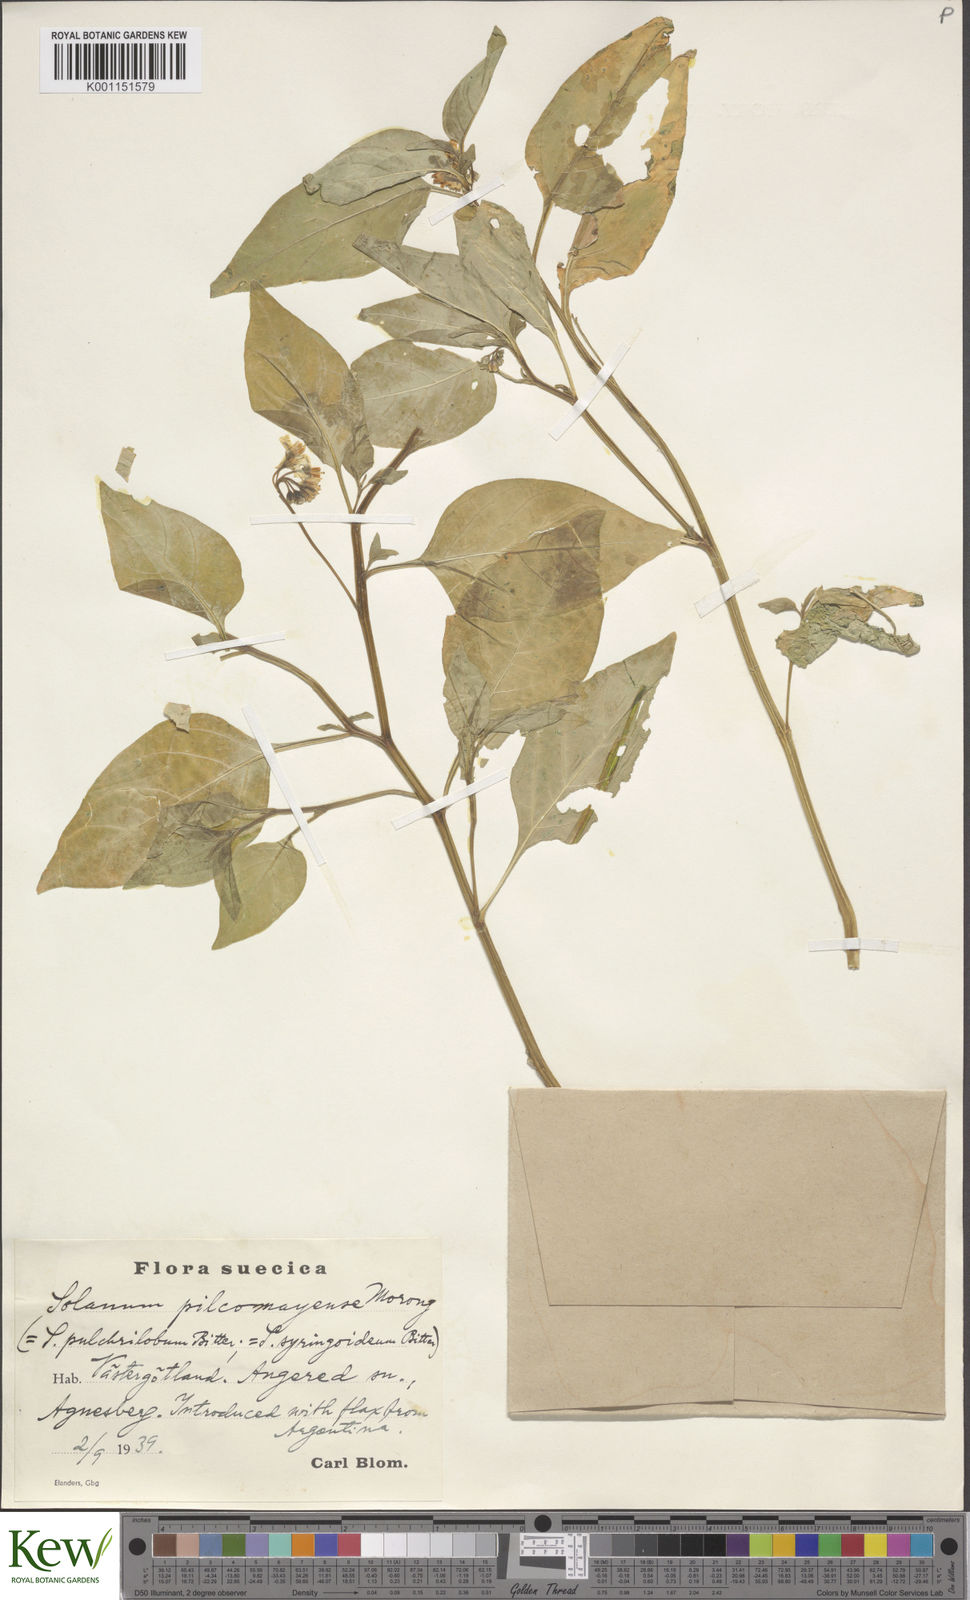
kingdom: Plantae
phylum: Tracheophyta
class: Magnoliopsida
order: Solanales
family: Solanaceae
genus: Solanum
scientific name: Solanum pilcomayense
